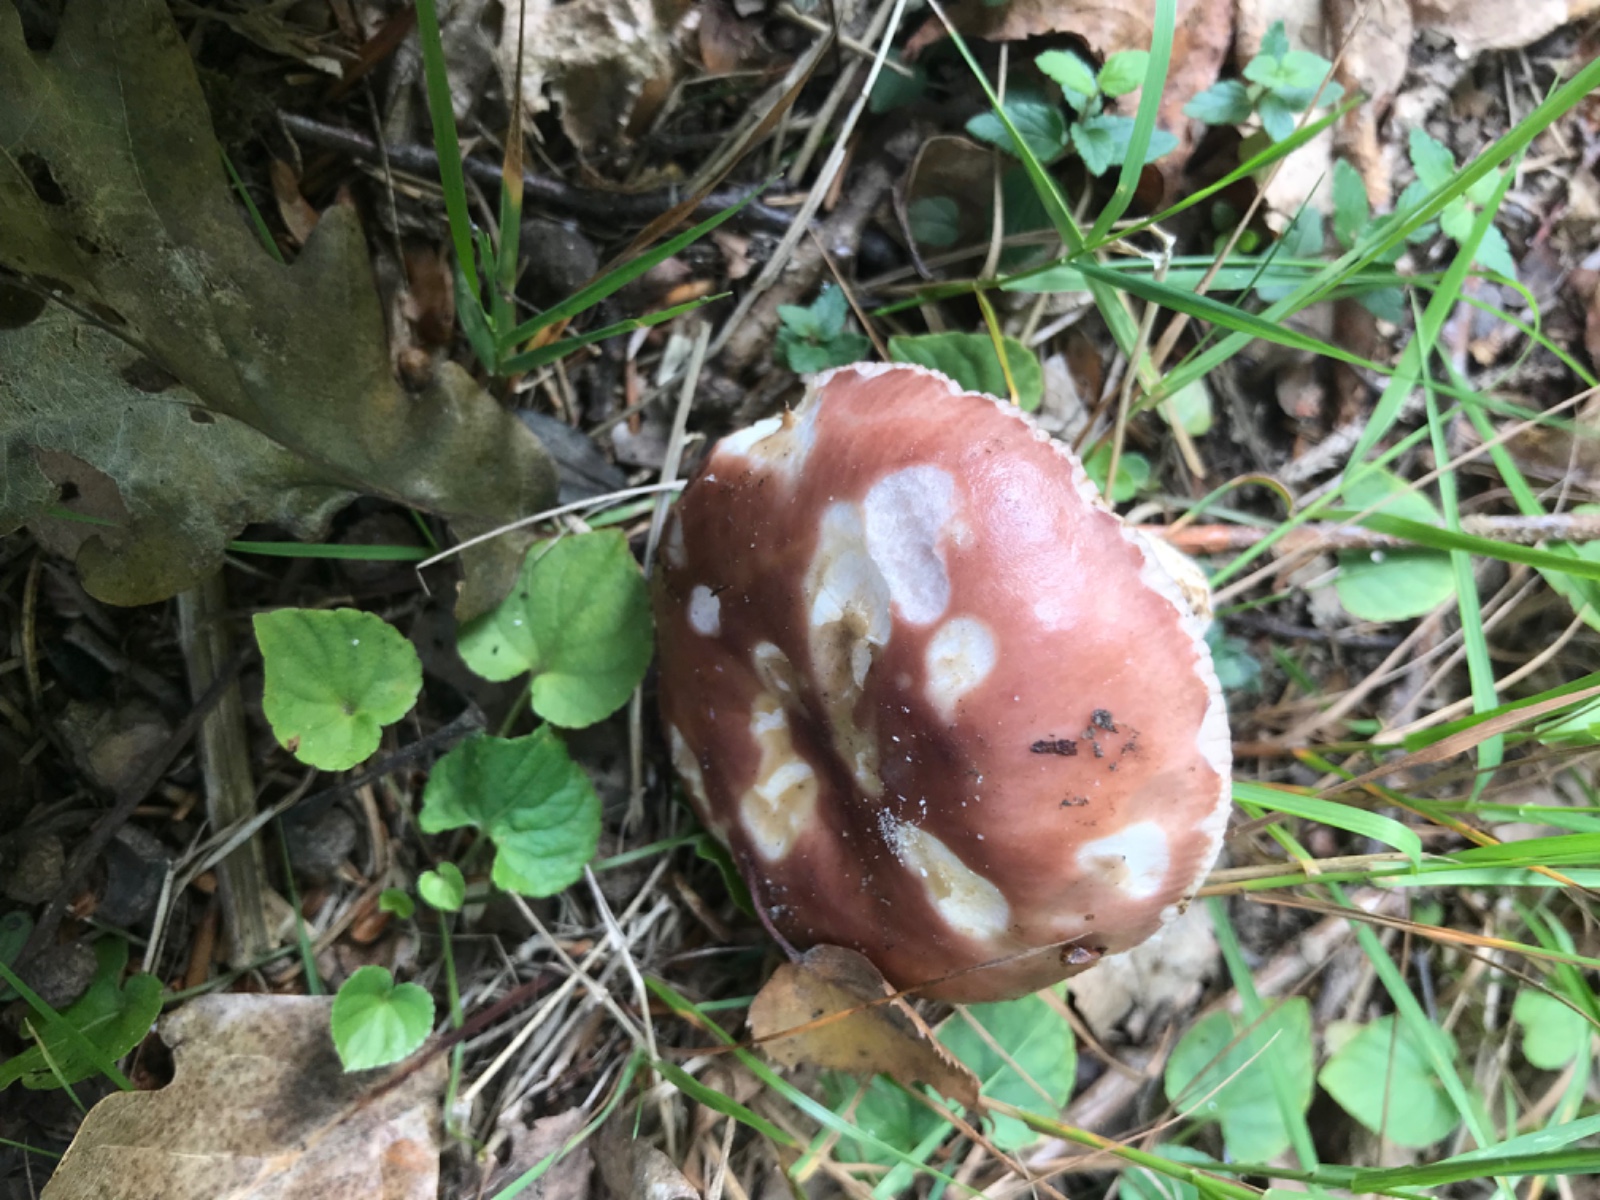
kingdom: Fungi
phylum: Basidiomycota
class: Agaricomycetes
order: Russulales
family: Russulaceae
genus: Russula
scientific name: Russula vesca
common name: spiselig skørhat
